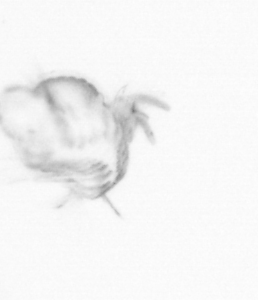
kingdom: Animalia
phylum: Annelida
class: Polychaeta
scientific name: Polychaeta
